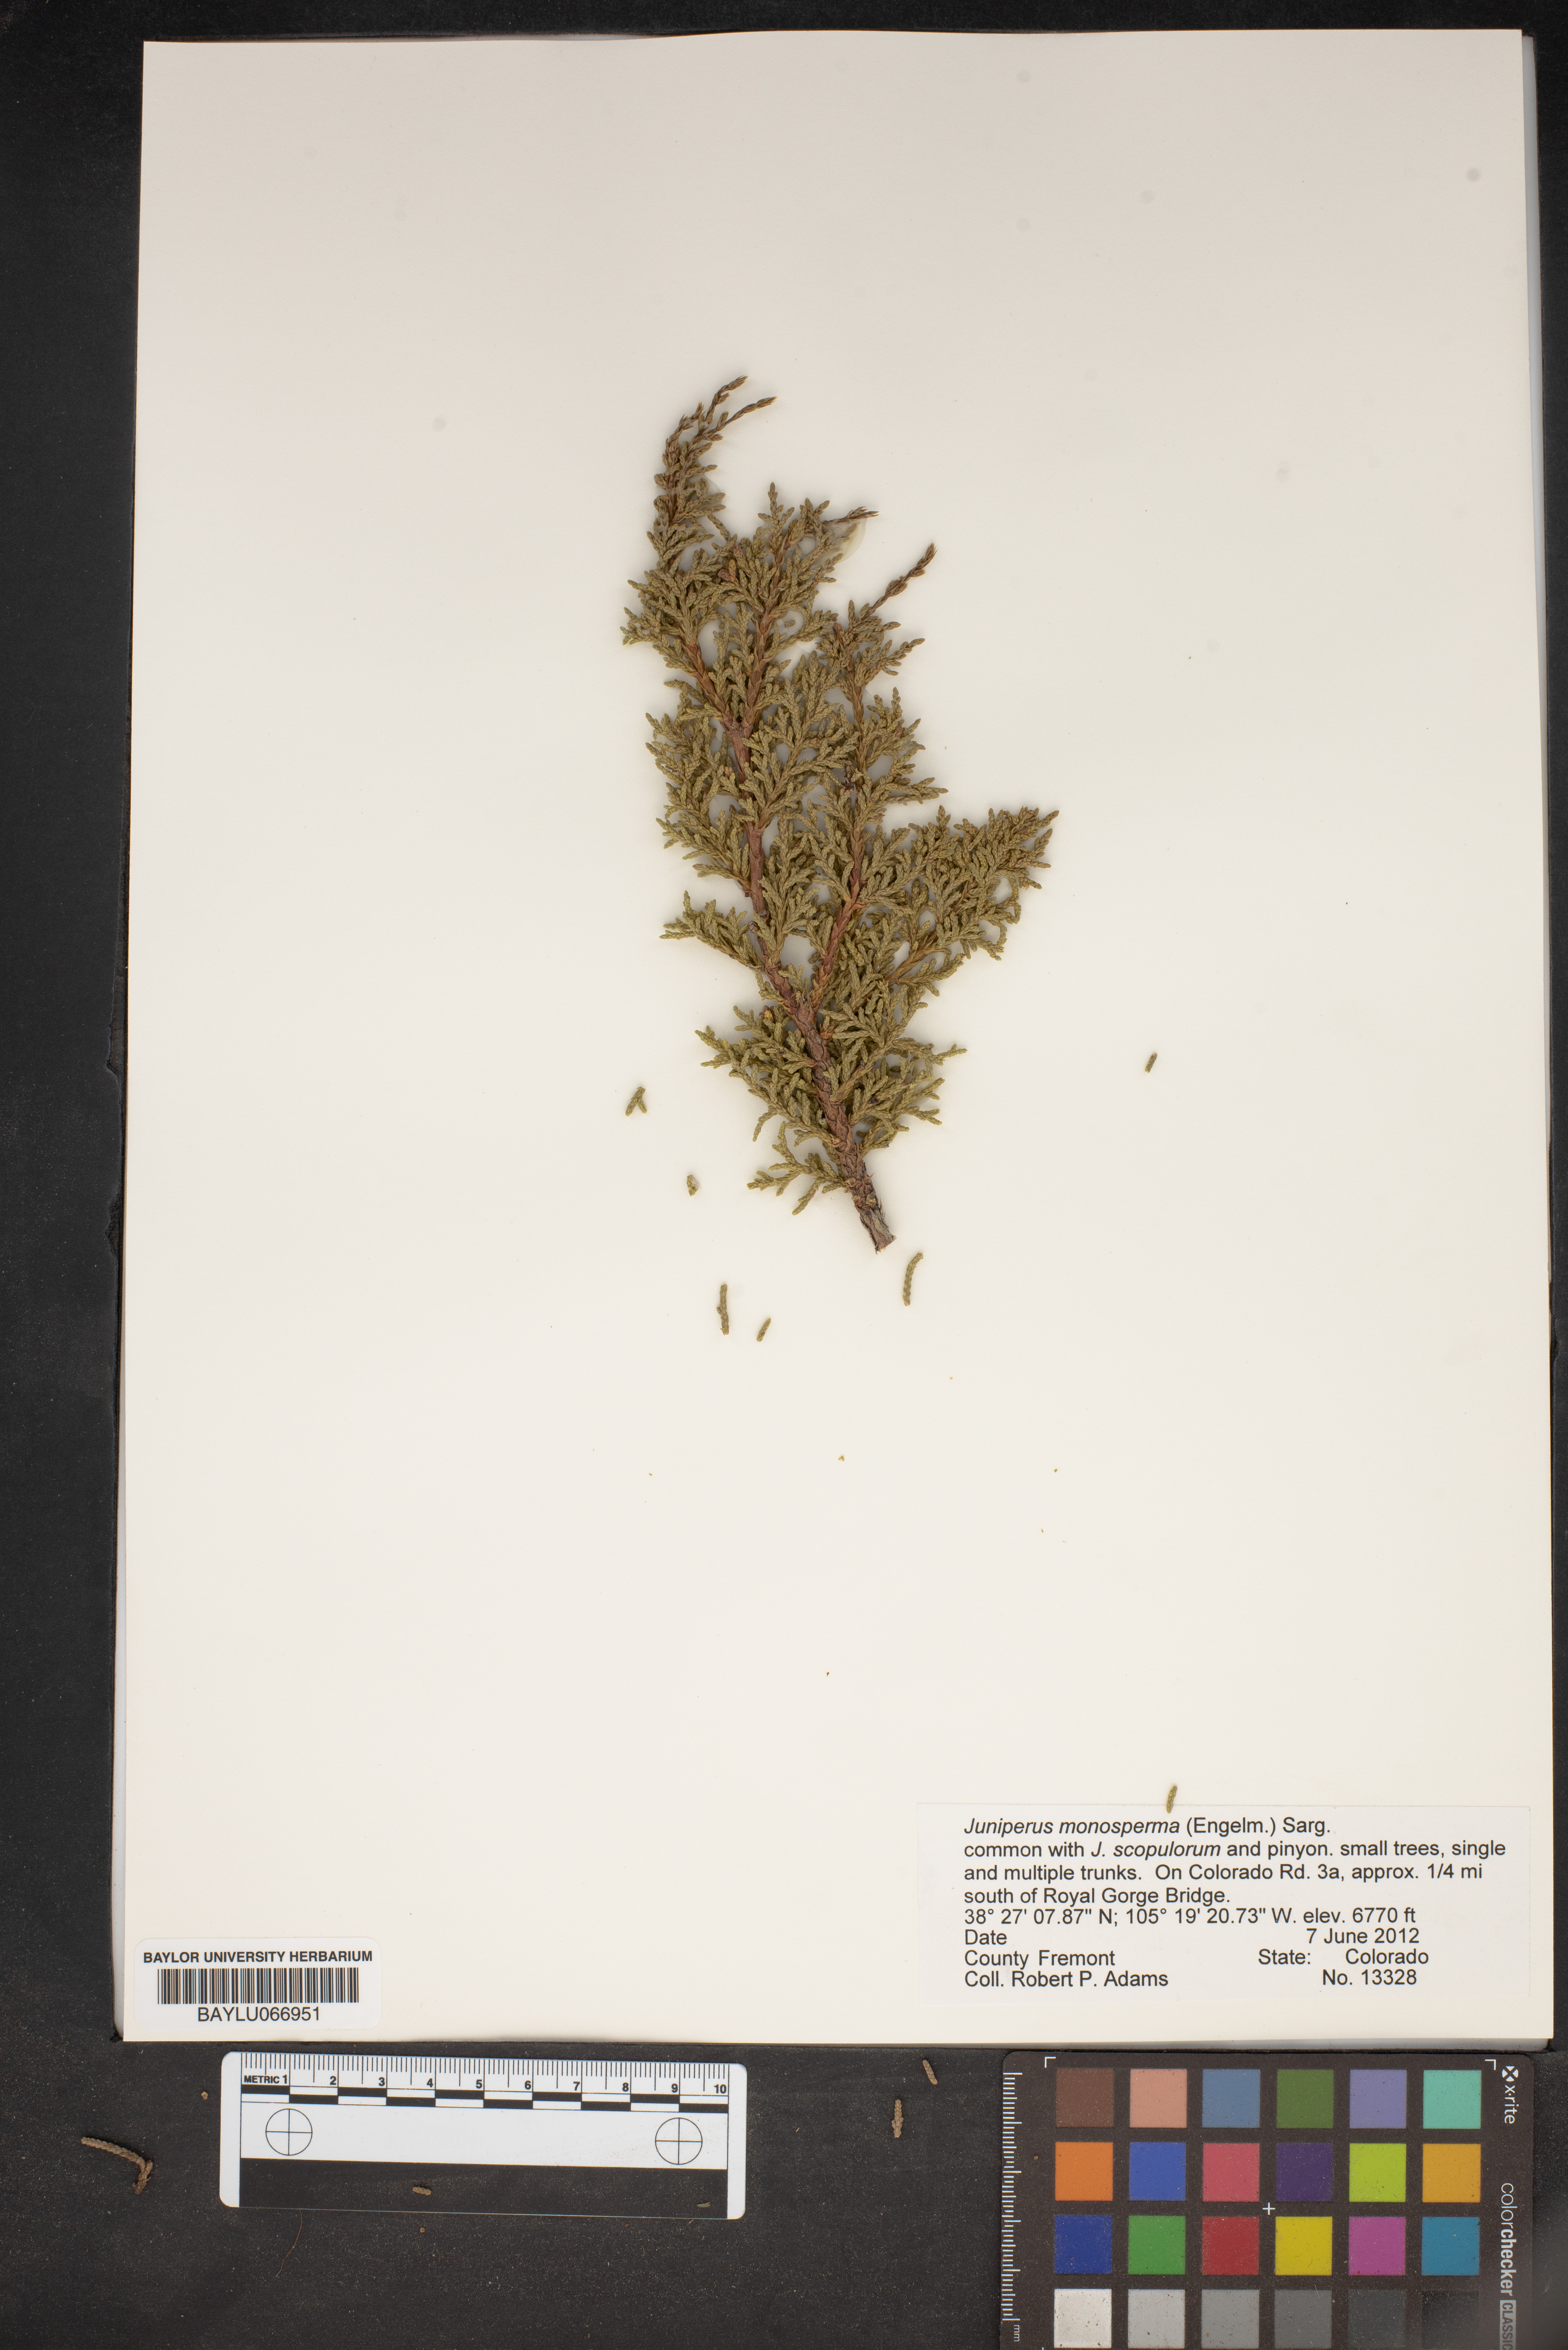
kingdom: Plantae
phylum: Tracheophyta
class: Pinopsida
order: Pinales
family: Cupressaceae
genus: Juniperus
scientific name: Juniperus monosperma
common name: One-seed juniper
